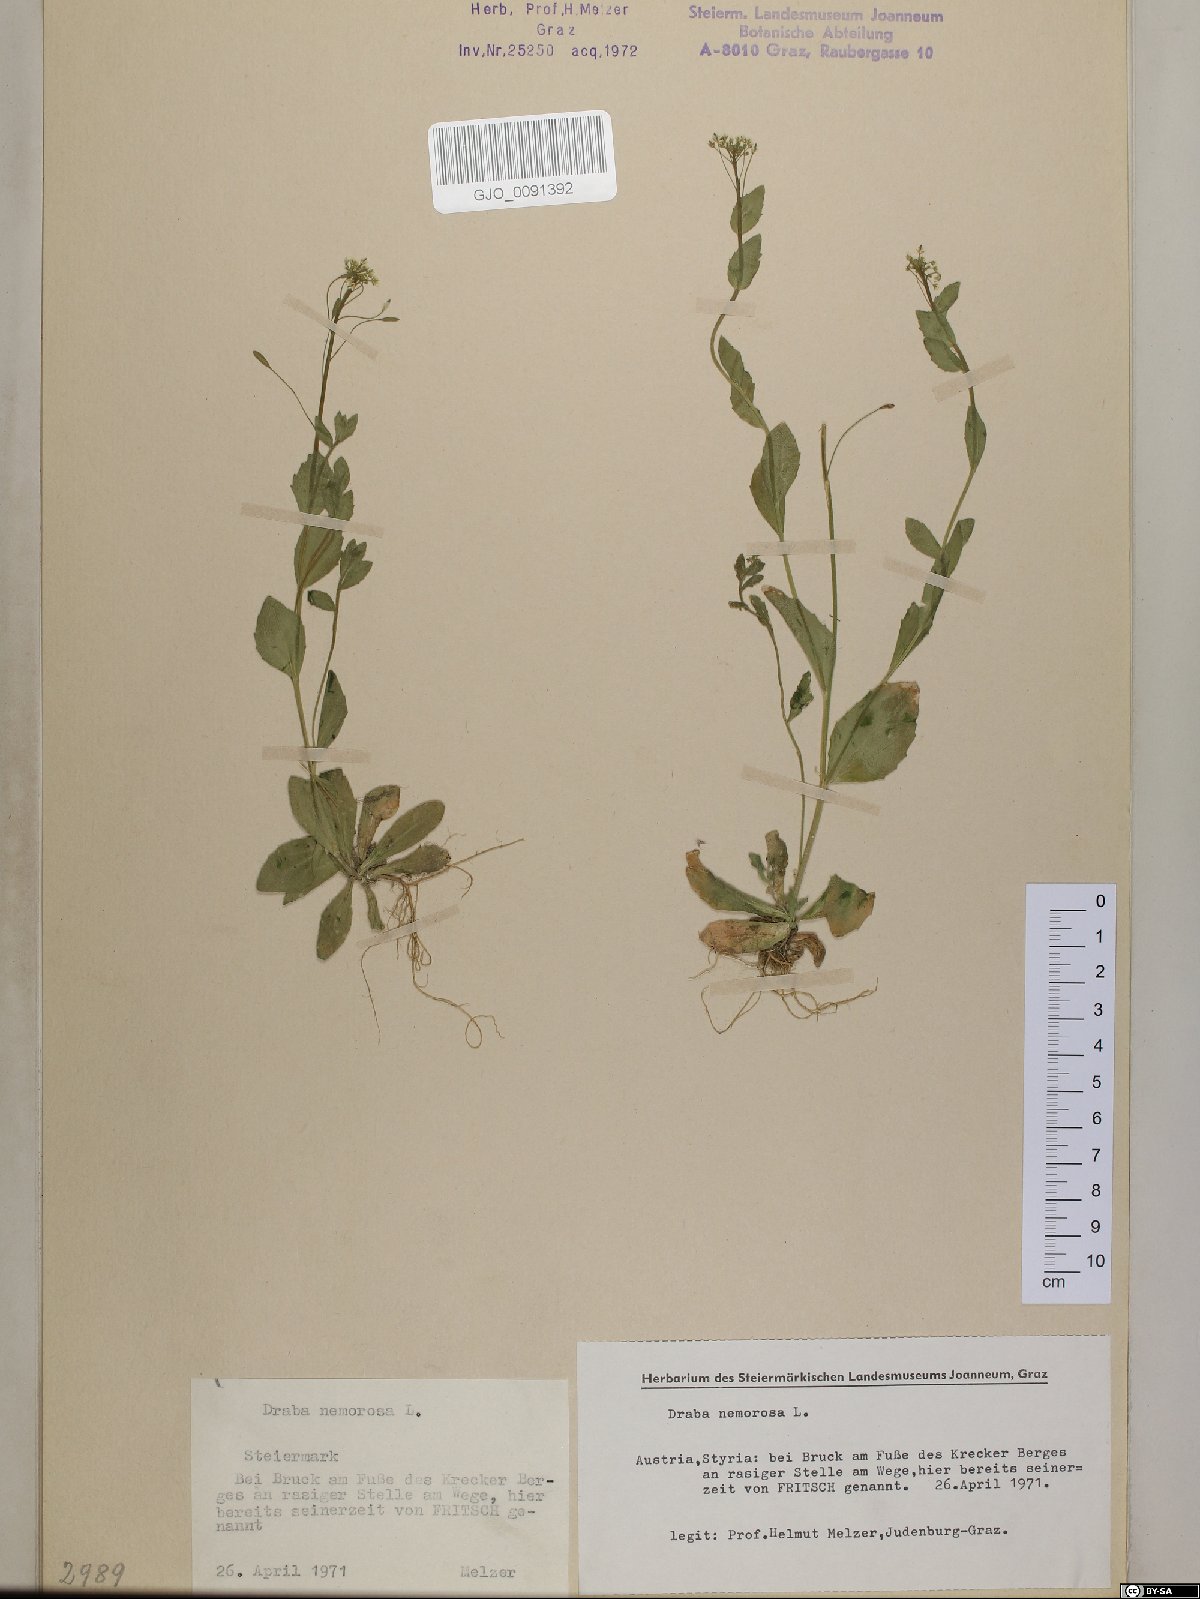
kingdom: Plantae
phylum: Tracheophyta
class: Magnoliopsida
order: Brassicales
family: Brassicaceae
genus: Draba
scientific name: Draba nemorosa
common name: Wood whitlow-grass
